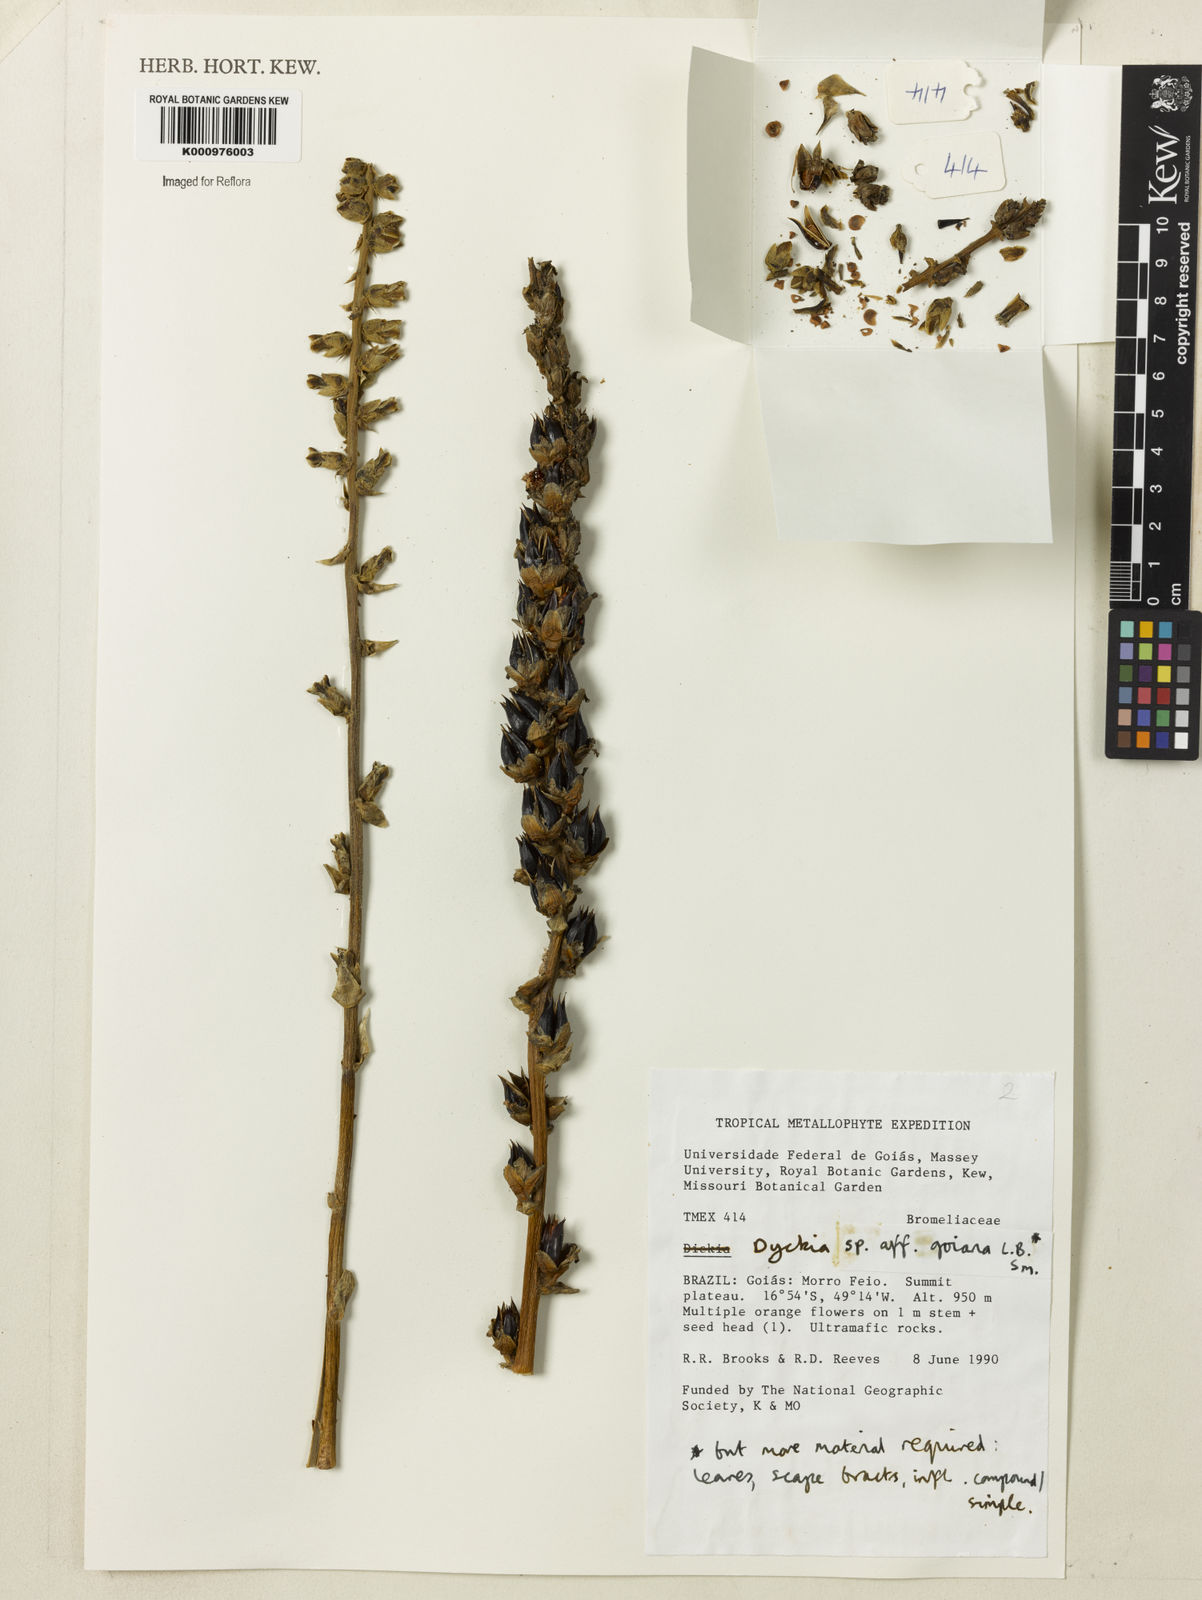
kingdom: Plantae
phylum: Tracheophyta
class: Liliopsida
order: Poales
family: Bromeliaceae
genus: Dyckia
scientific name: Dyckia goiana
